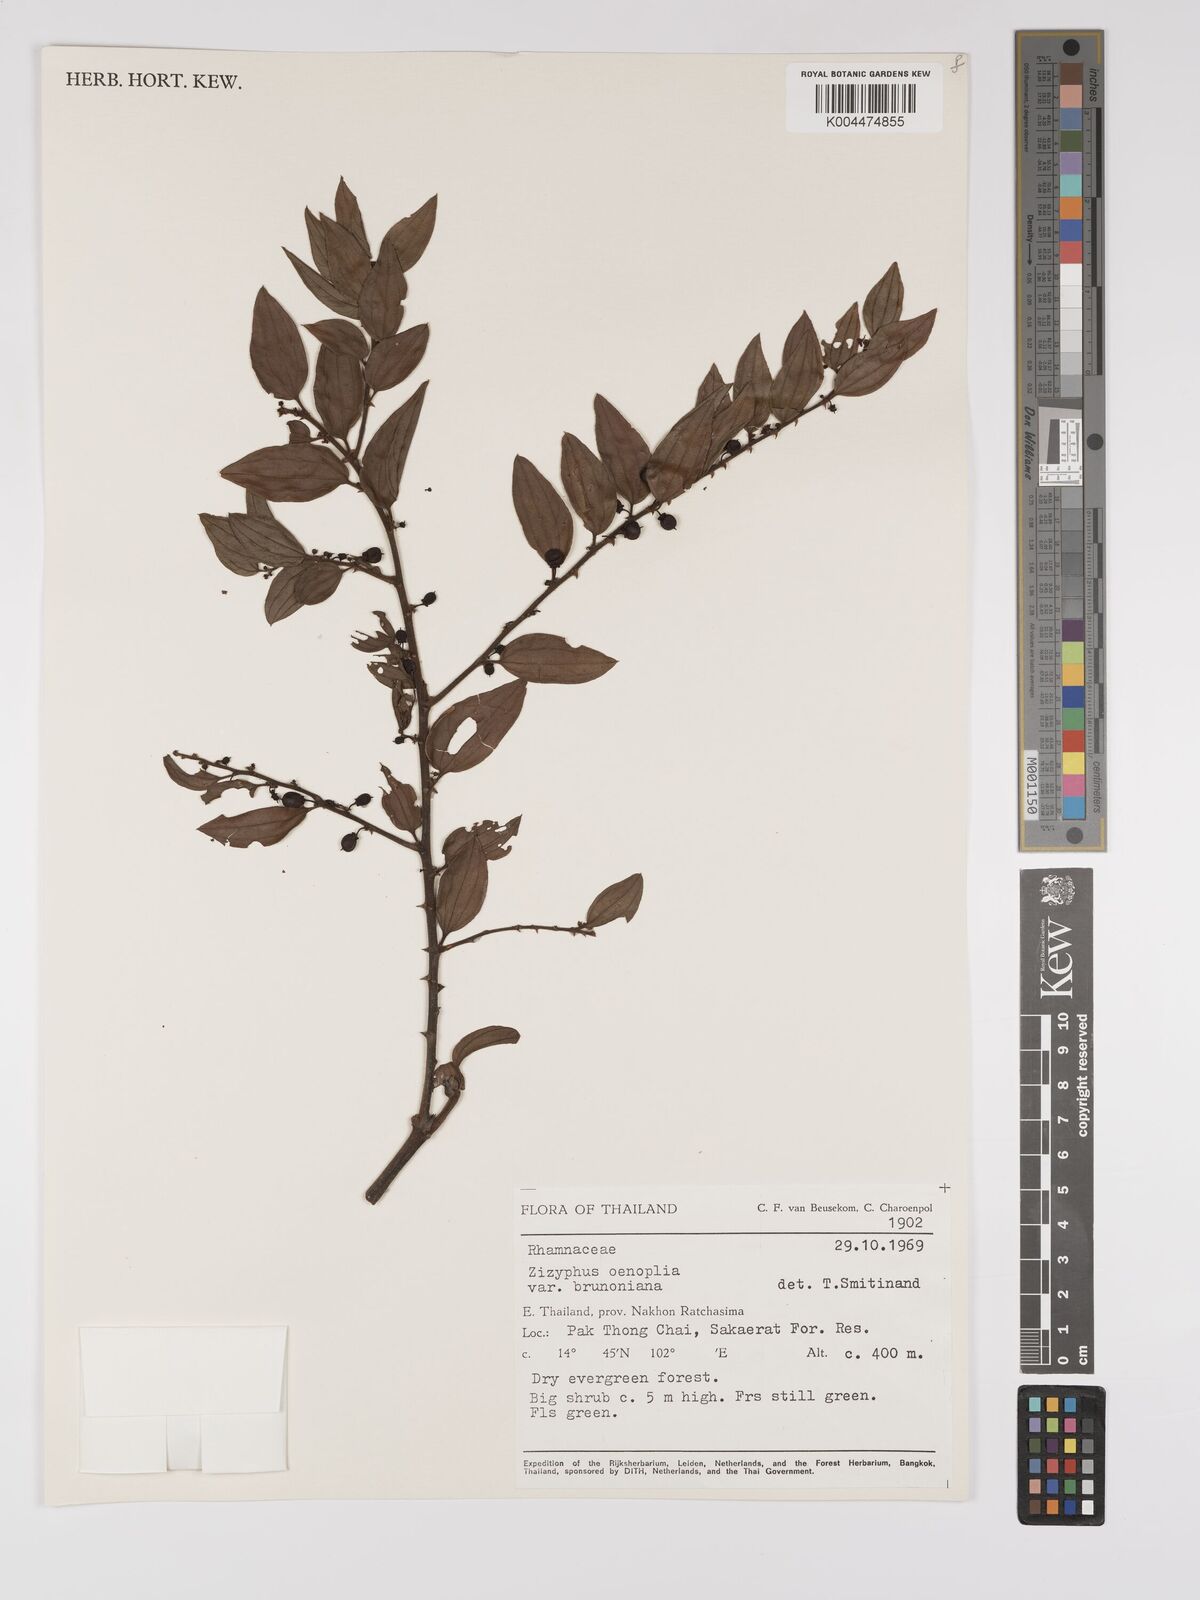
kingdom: Plantae
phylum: Tracheophyta
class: Magnoliopsida
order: Rosales
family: Rhamnaceae
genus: Ziziphus
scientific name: Ziziphus oenopolia
